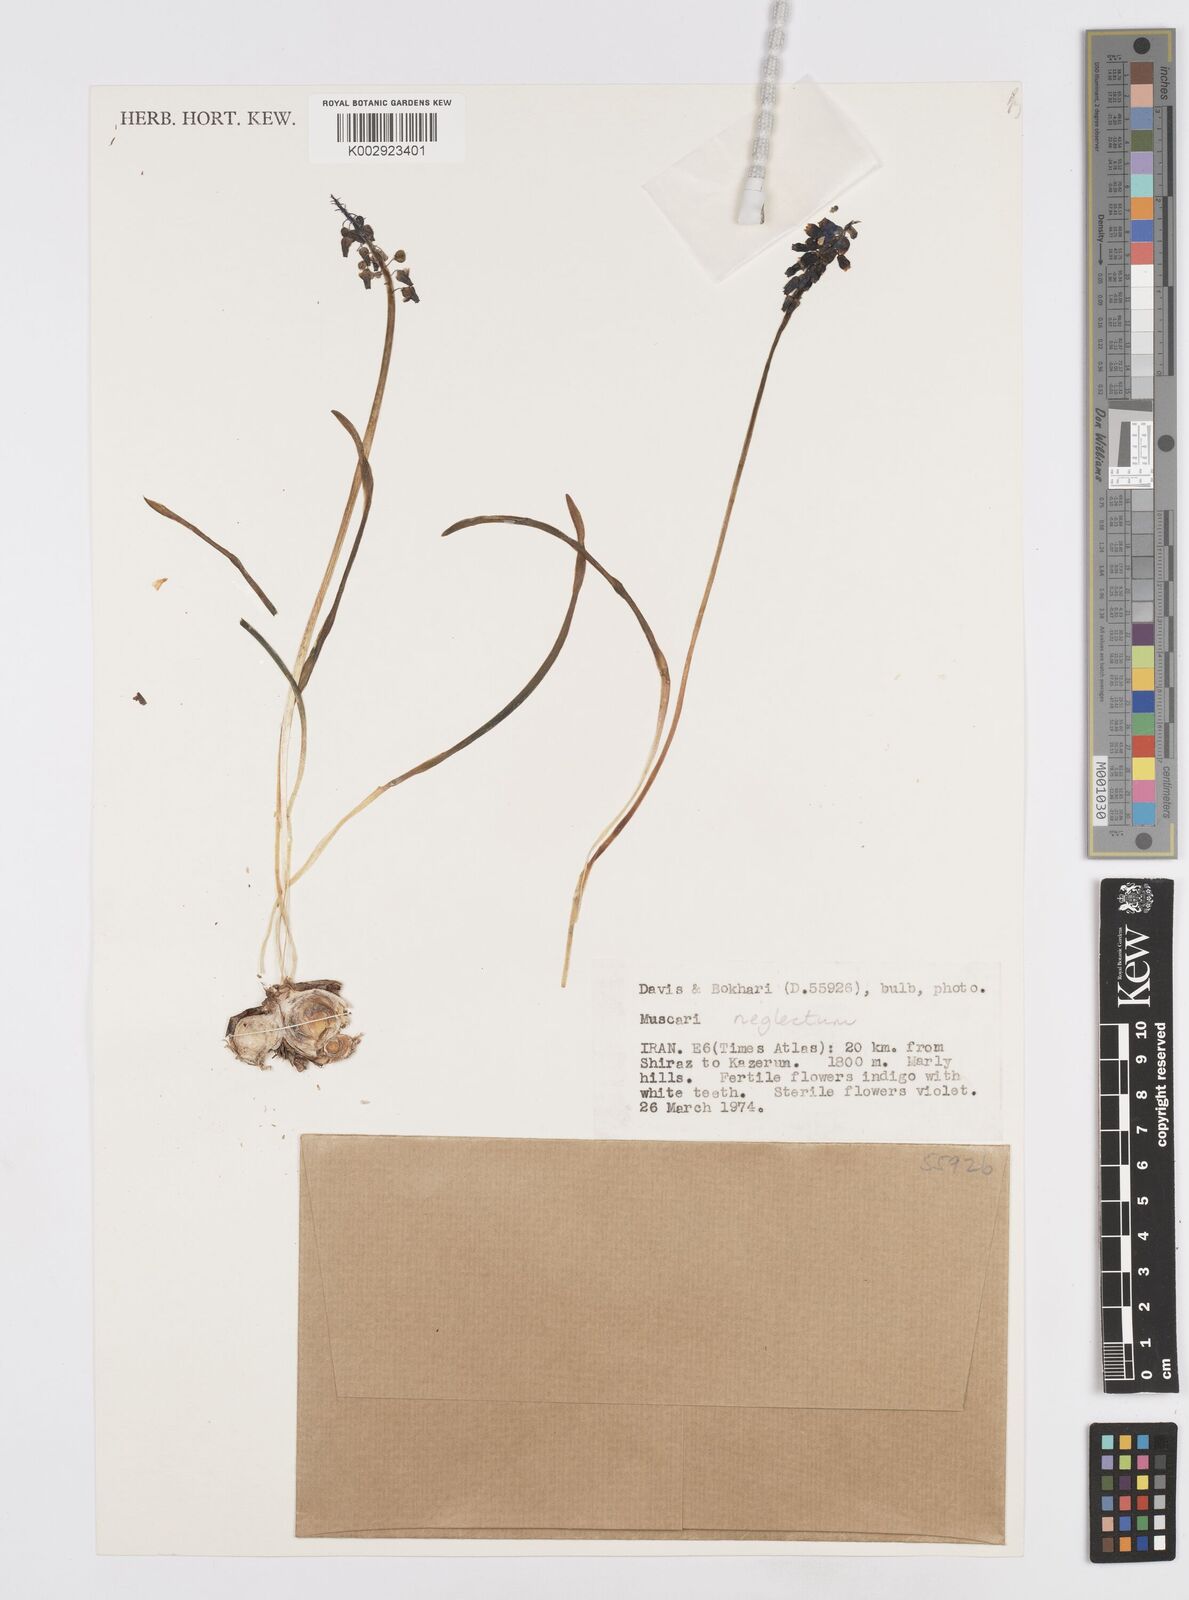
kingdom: Plantae
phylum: Tracheophyta
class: Liliopsida
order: Asparagales
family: Asparagaceae
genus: Muscari
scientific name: Muscari neglectum
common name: Grape-hyacinth
